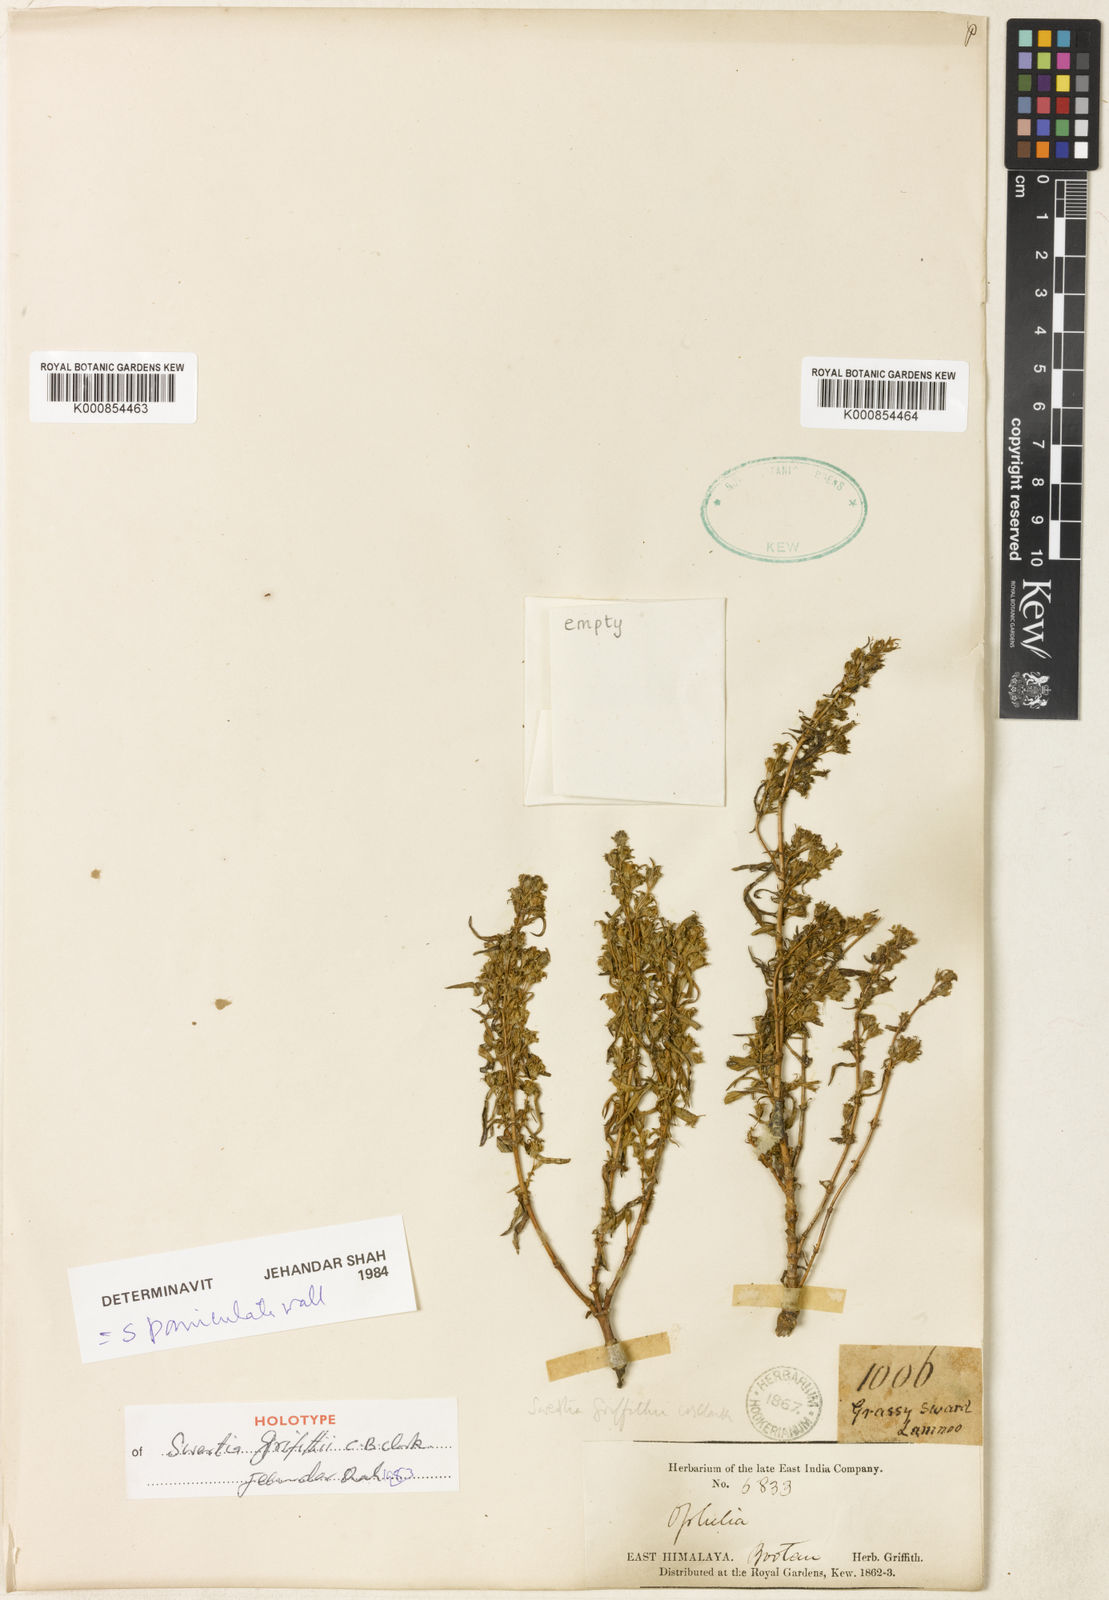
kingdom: Plantae
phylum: Tracheophyta
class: Magnoliopsida
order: Gentianales
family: Gentianaceae
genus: Swertia
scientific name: Swertia paniculata
